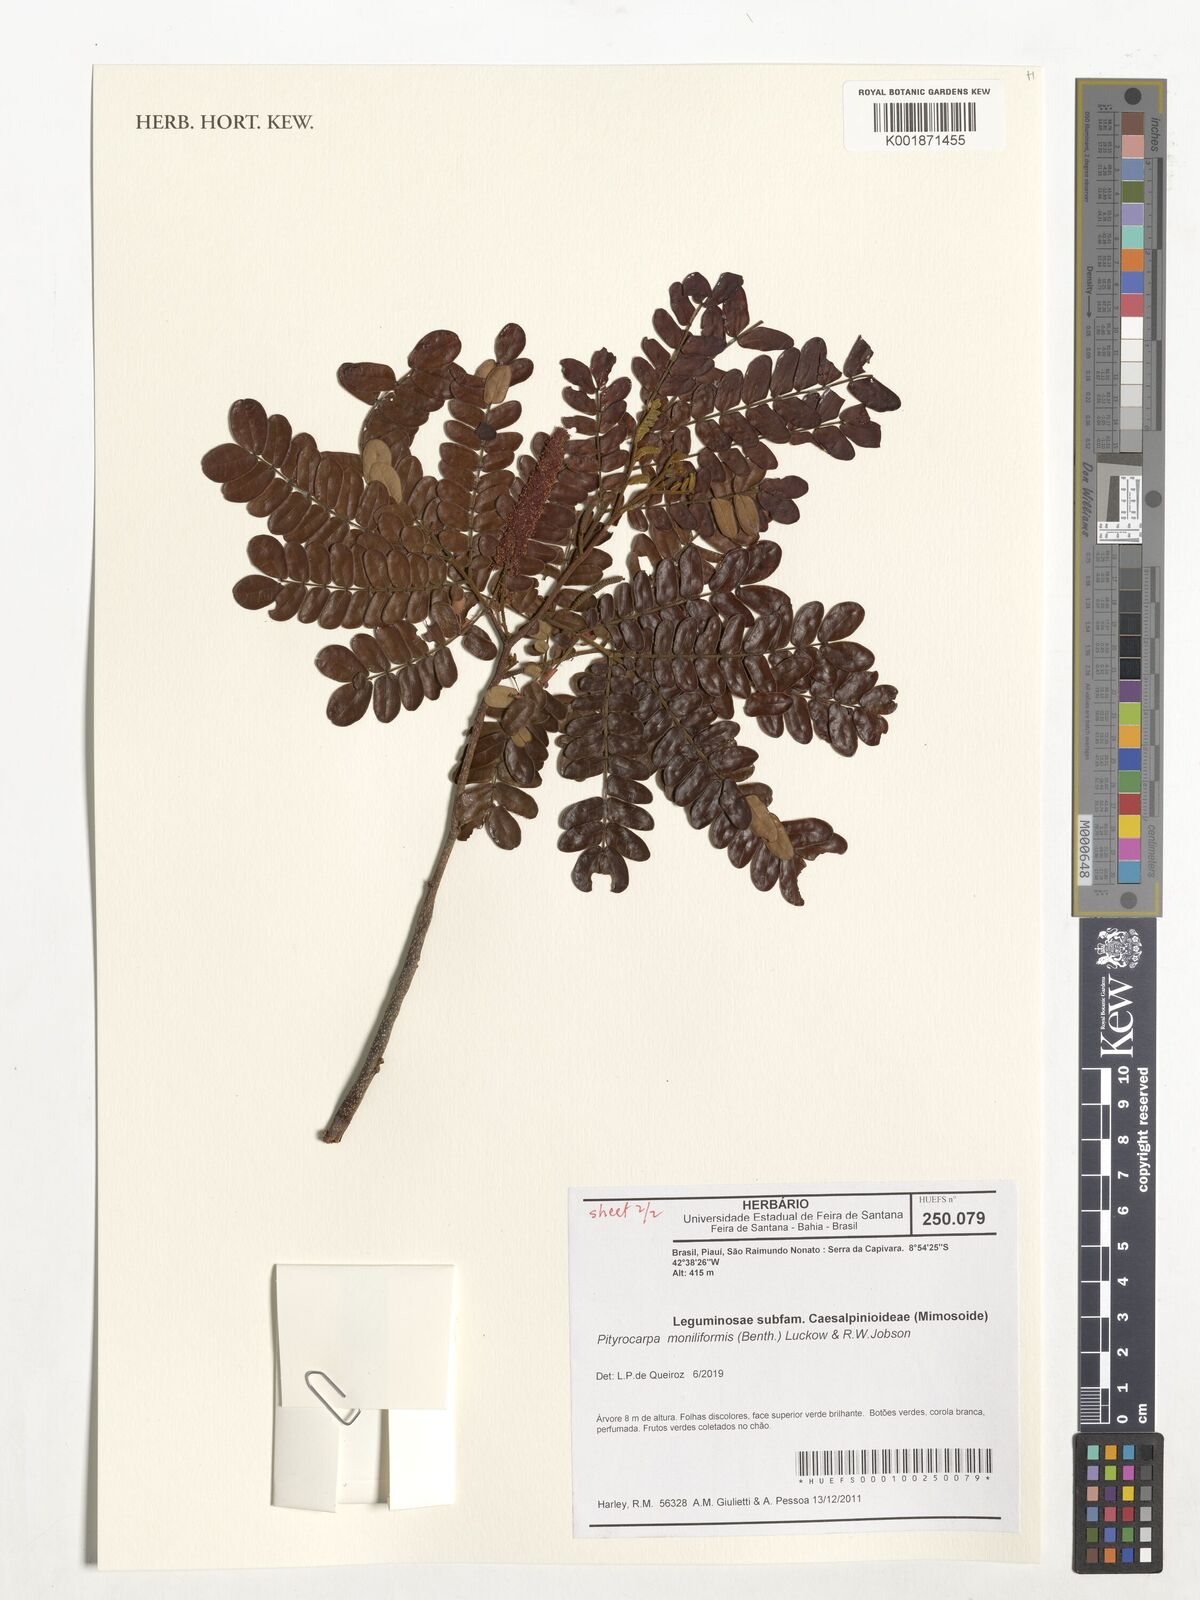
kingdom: Plantae
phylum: Tracheophyta
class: Magnoliopsida
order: Fabales
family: Fabaceae
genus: Pityrocarpa
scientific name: Pityrocarpa moniliformis
